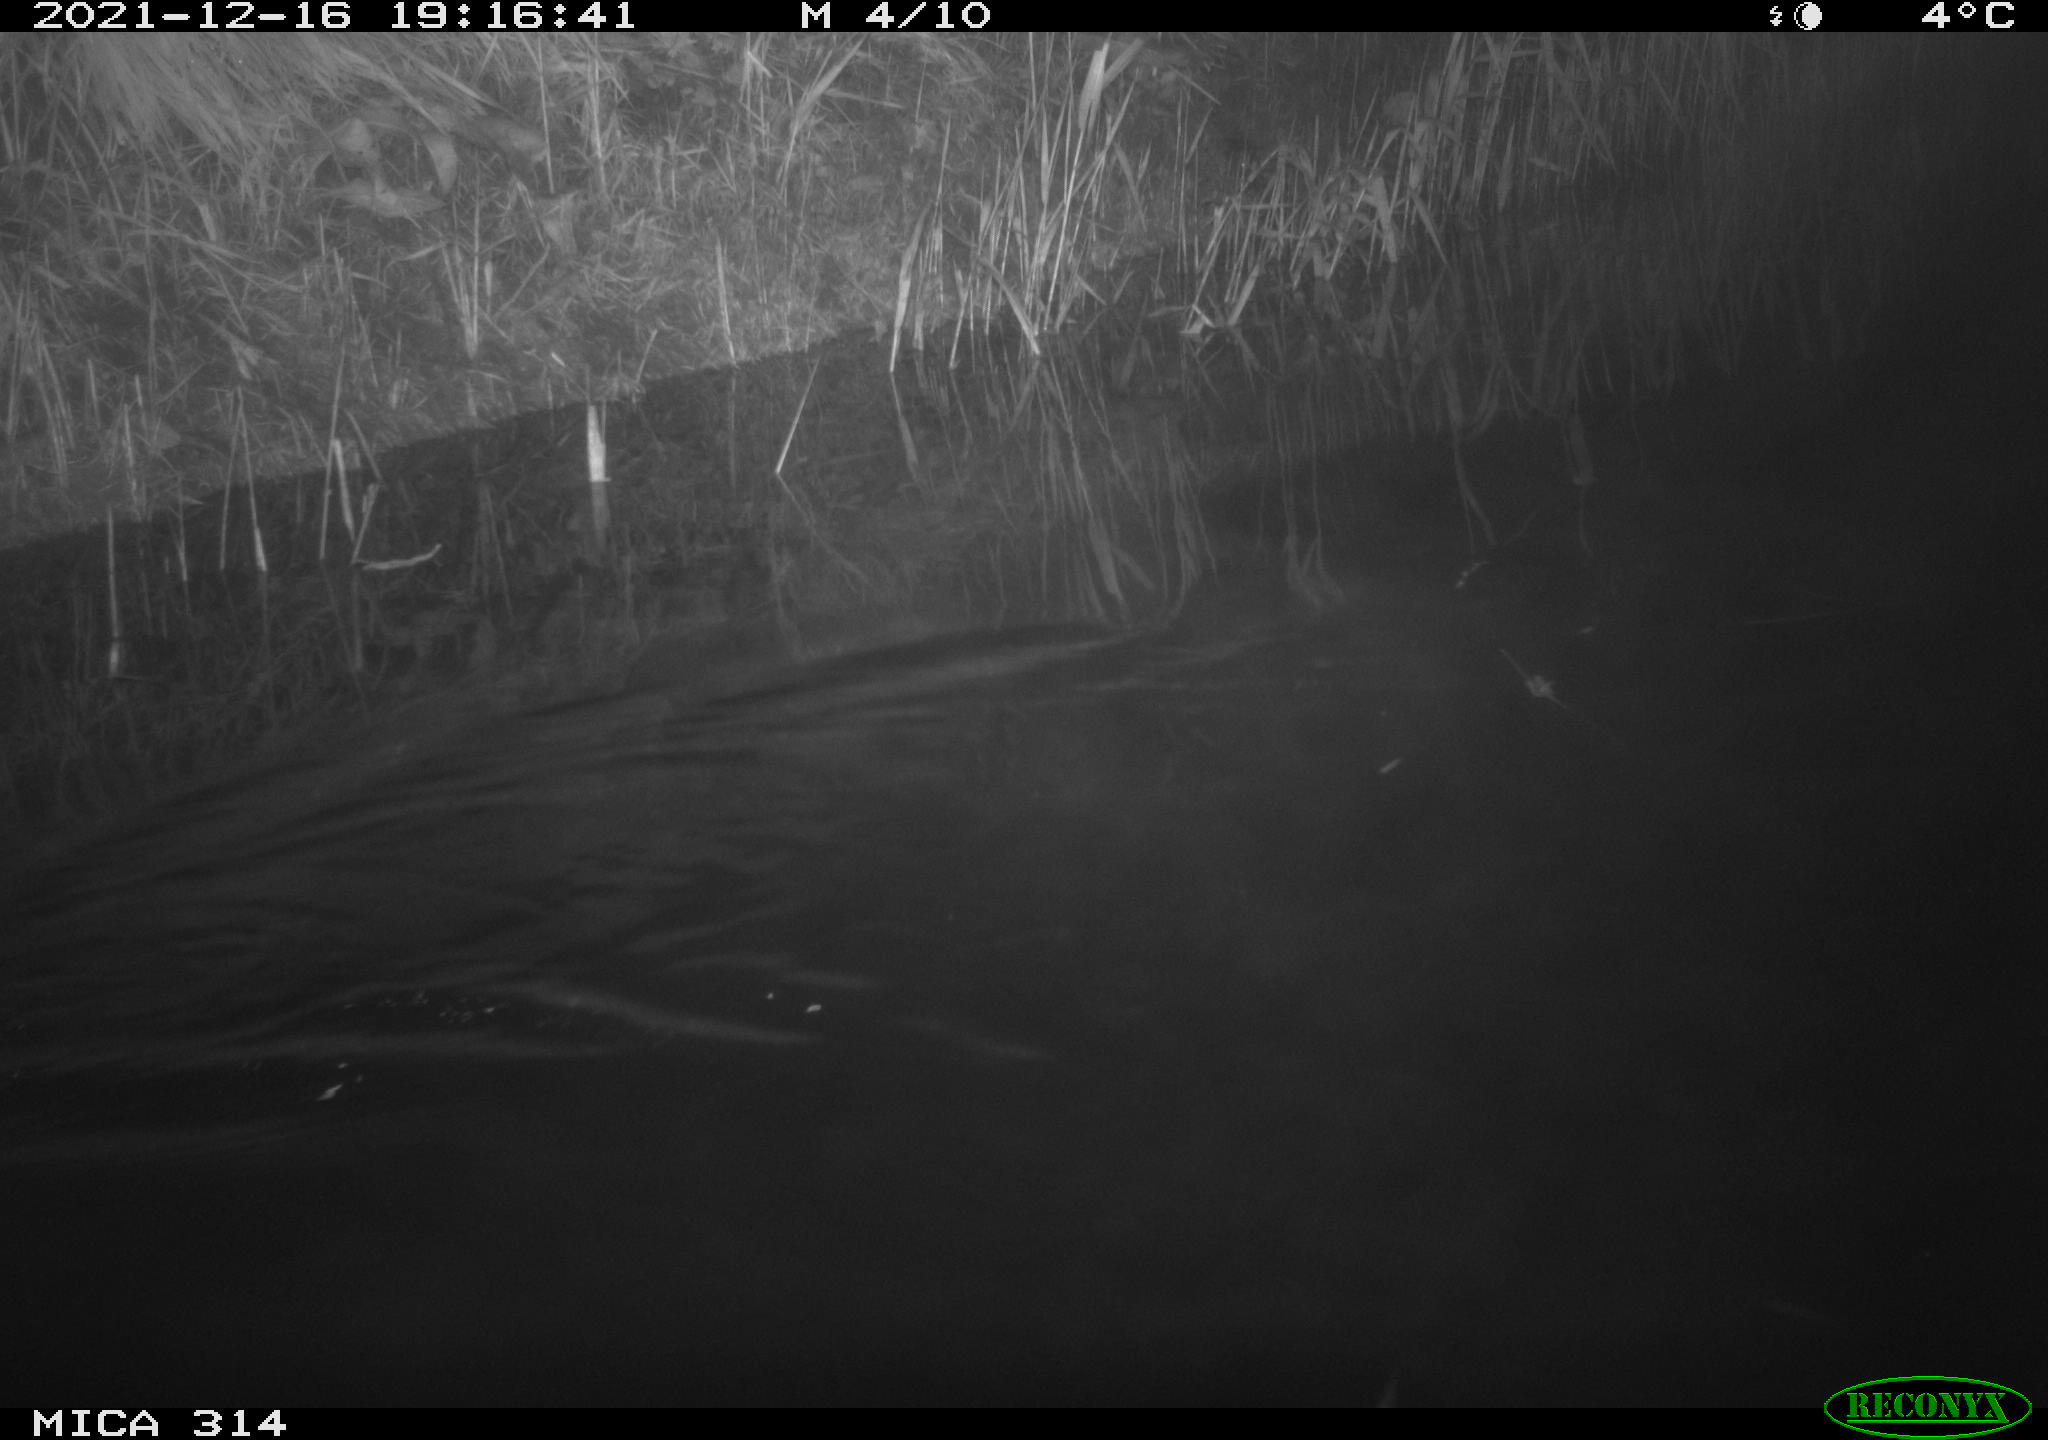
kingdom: Animalia
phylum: Chordata
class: Mammalia
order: Rodentia
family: Muridae
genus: Rattus
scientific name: Rattus norvegicus
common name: Brown rat
